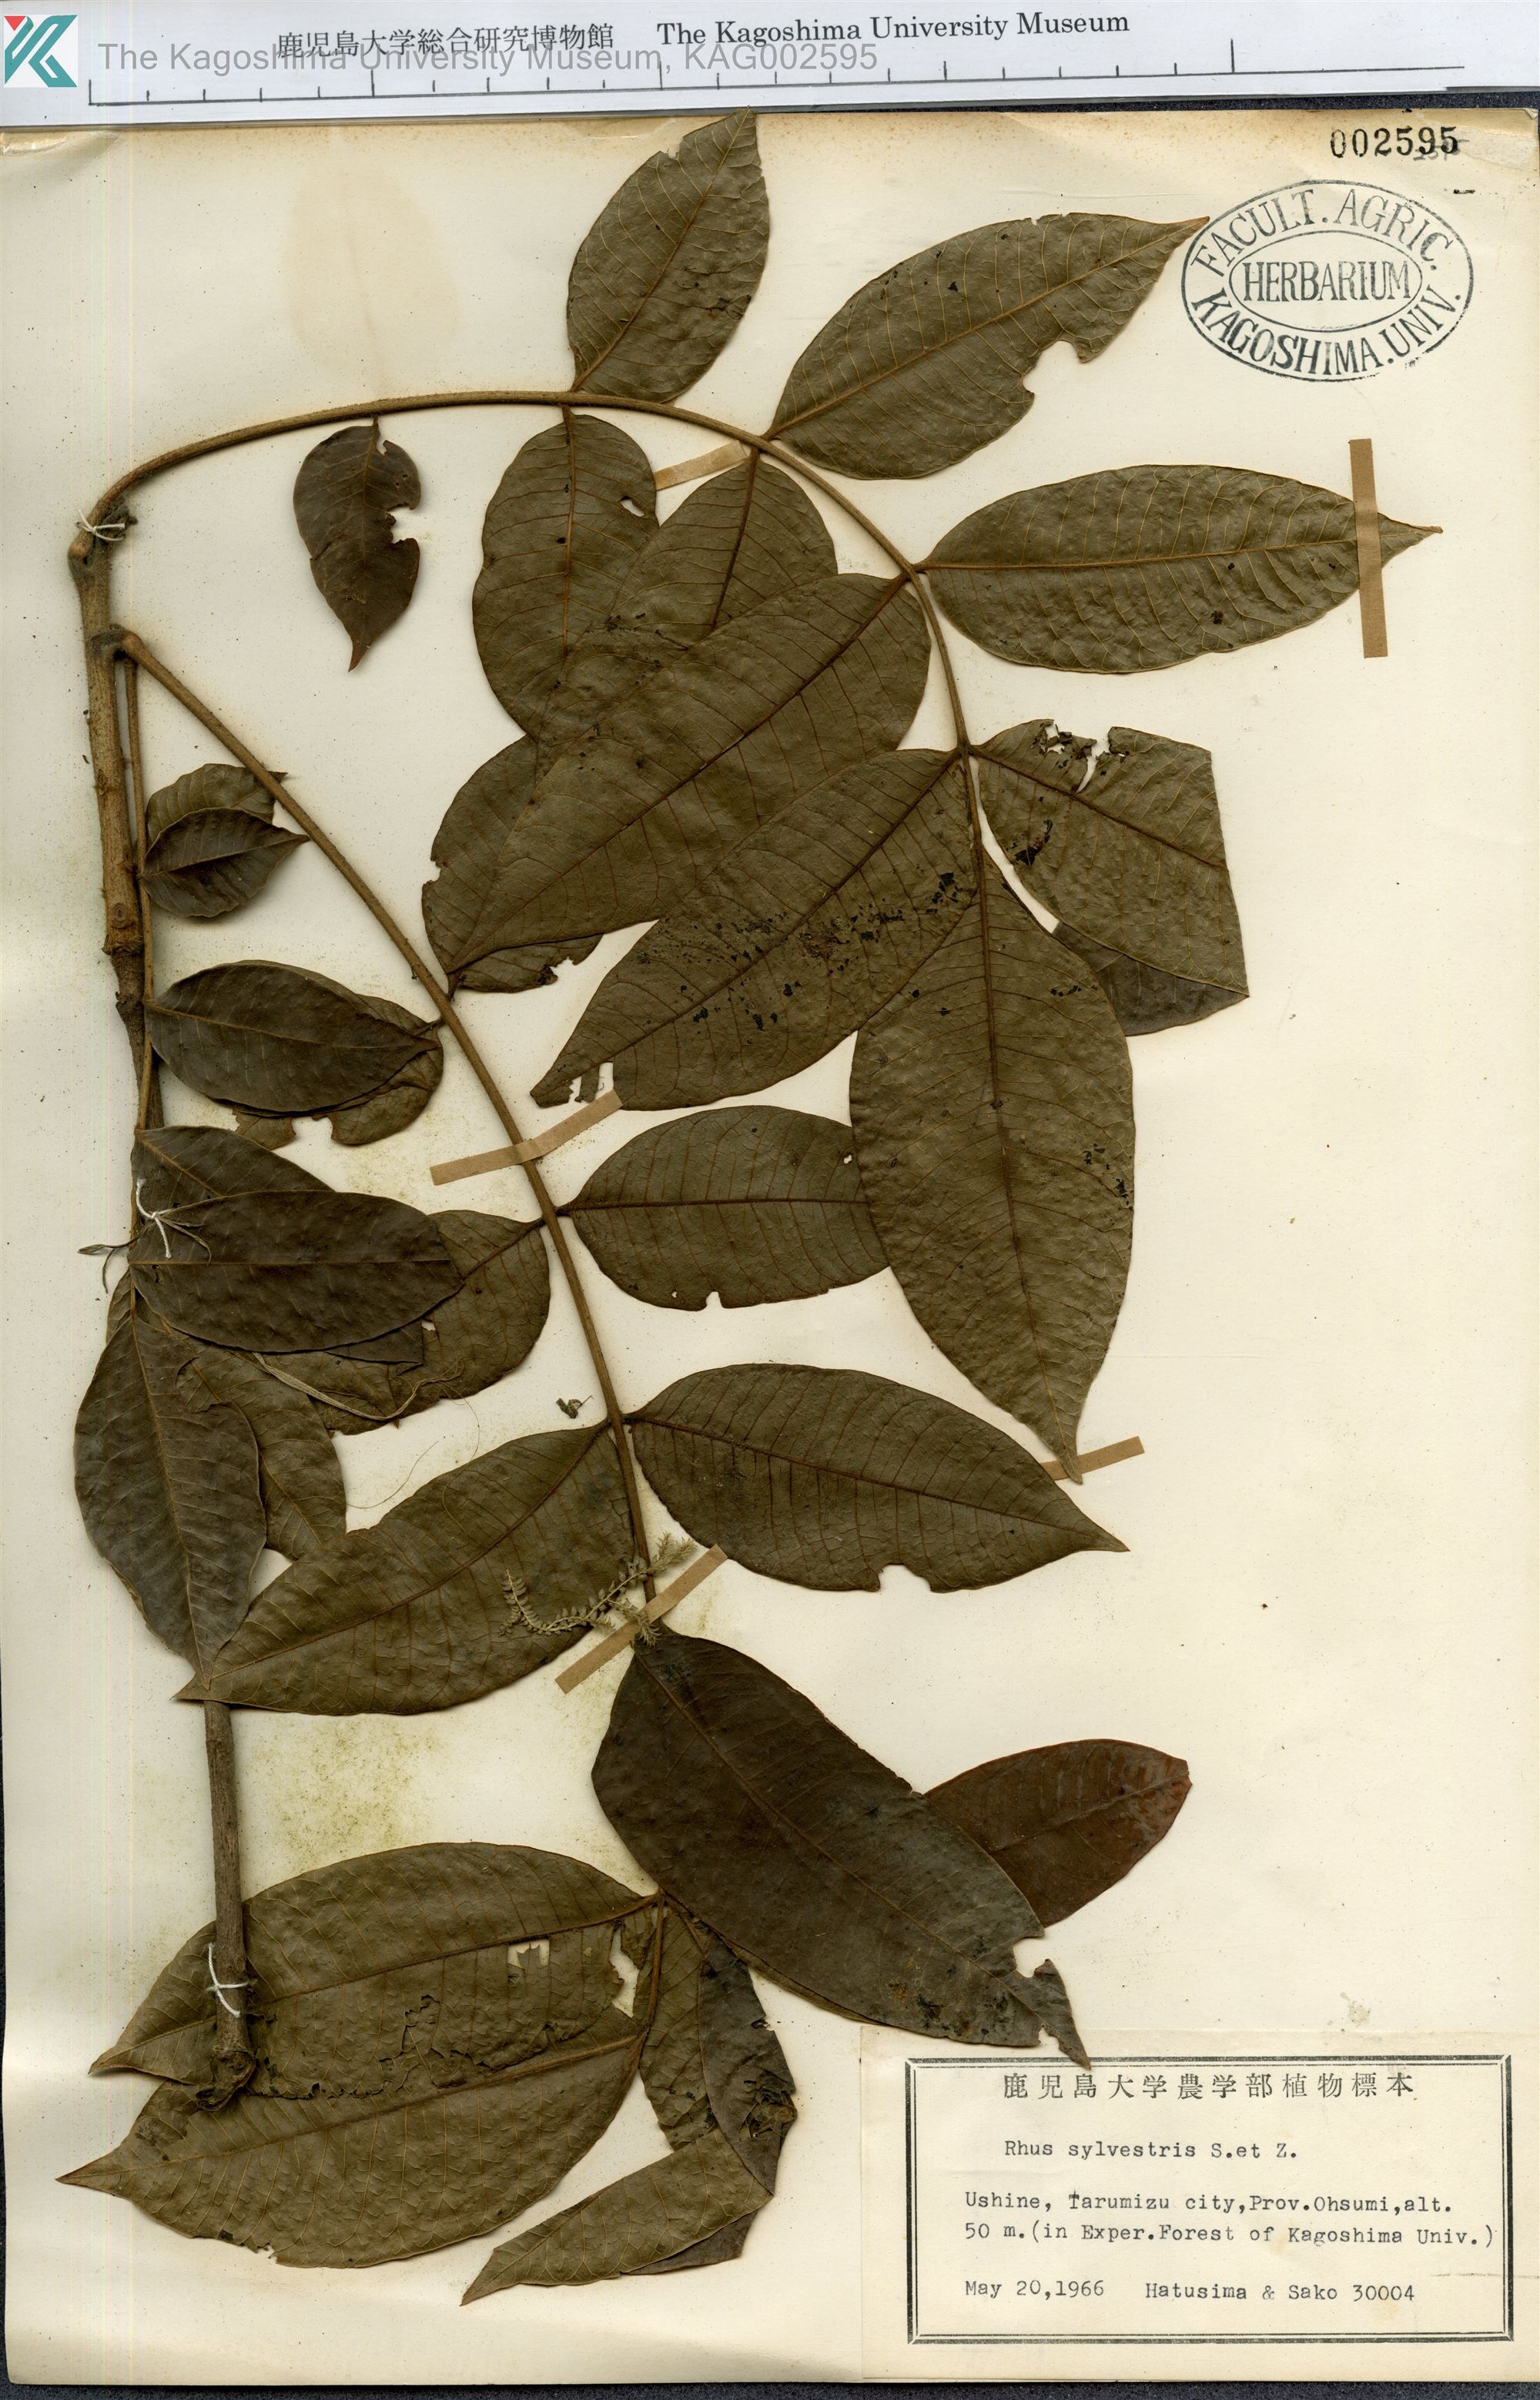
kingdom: Plantae
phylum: Tracheophyta
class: Magnoliopsida
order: Sapindales
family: Anacardiaceae
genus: Toxicodendron
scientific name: Toxicodendron sylvestre
